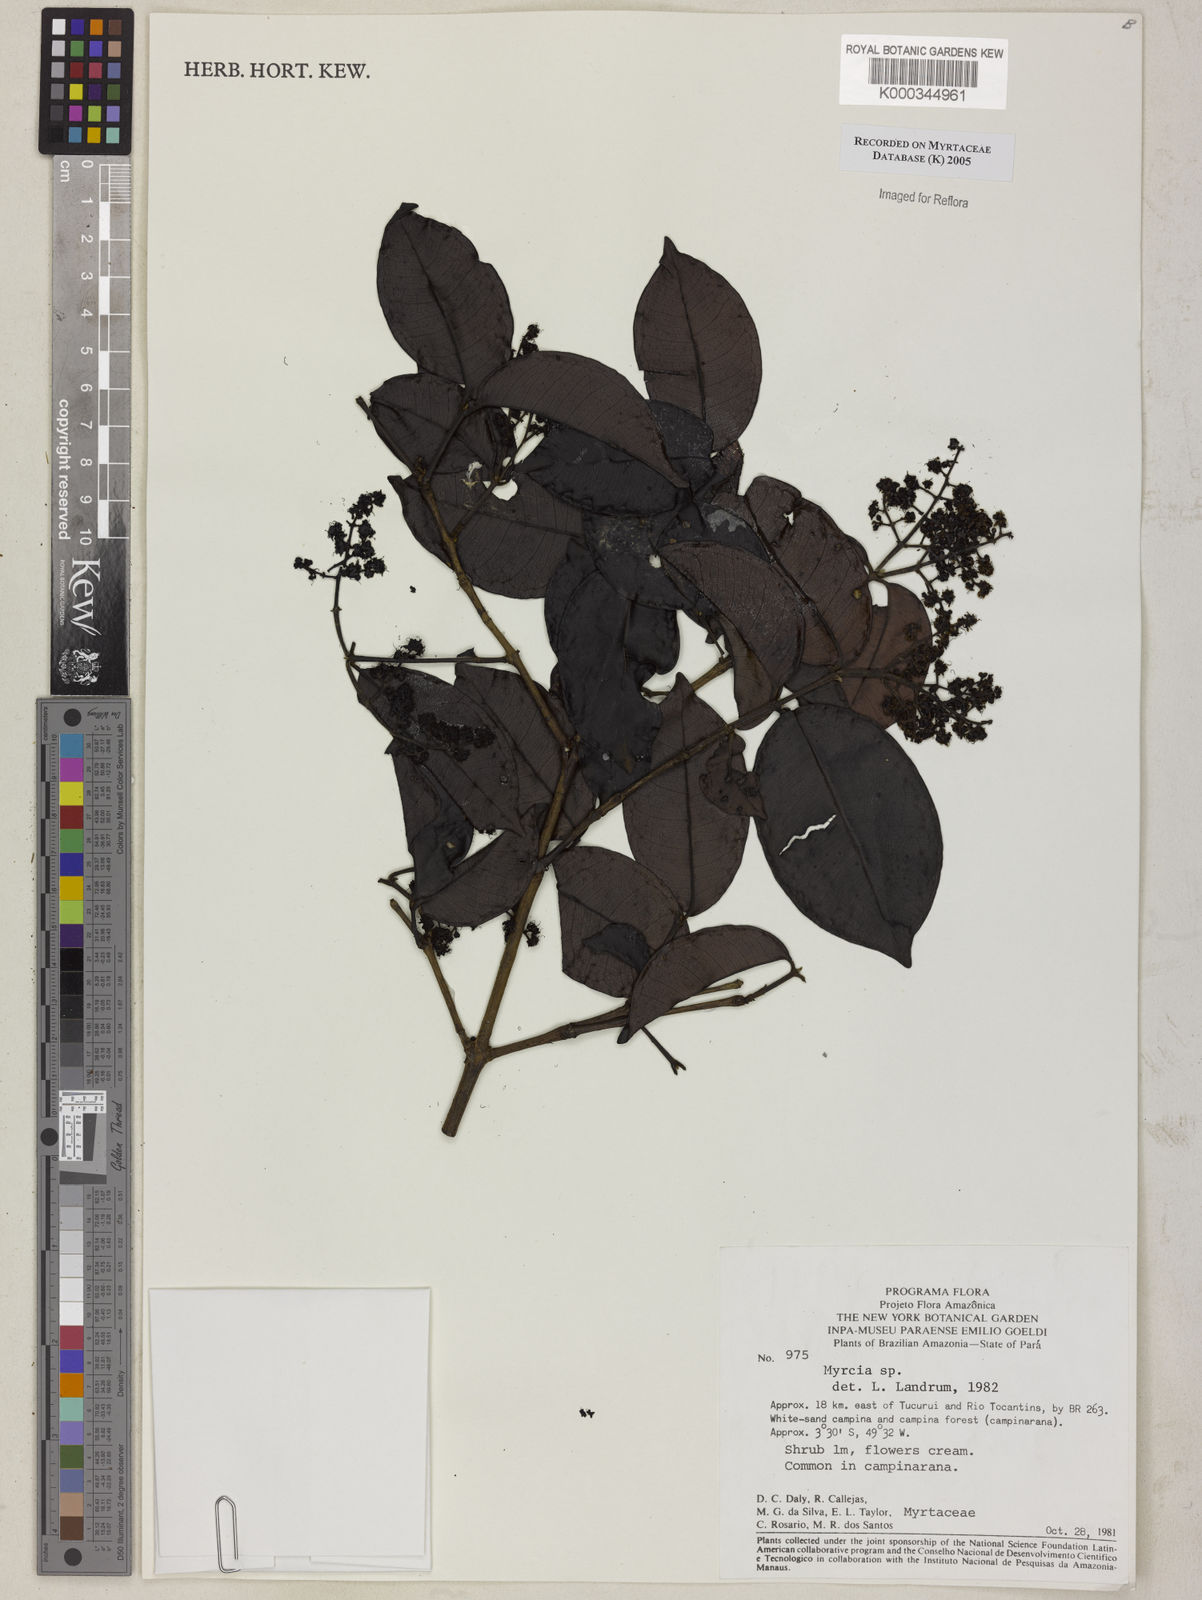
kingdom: Plantae
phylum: Tracheophyta
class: Magnoliopsida
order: Myrtales
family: Myrtaceae
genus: Myrcia
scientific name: Myrcia
